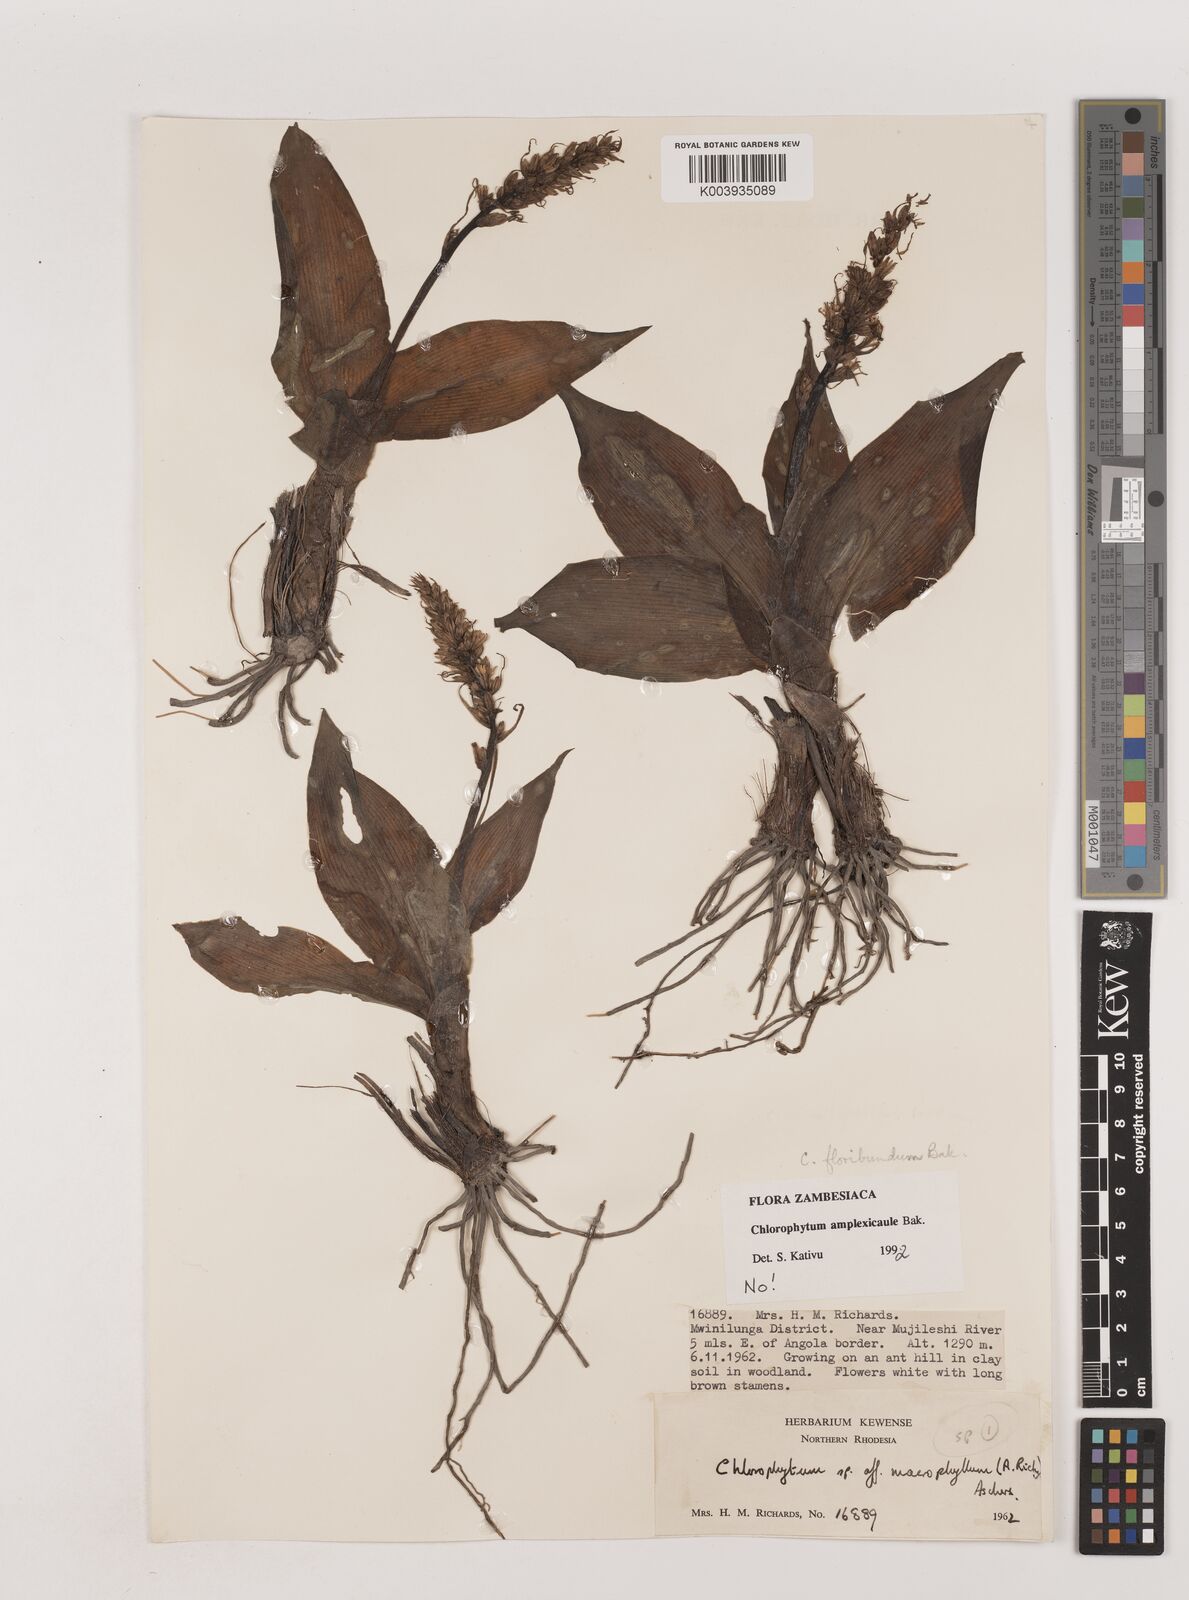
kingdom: Plantae
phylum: Tracheophyta
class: Liliopsida
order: Asparagales
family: Asparagaceae
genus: Chlorophytum
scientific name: Chlorophytum blepharophyllum
